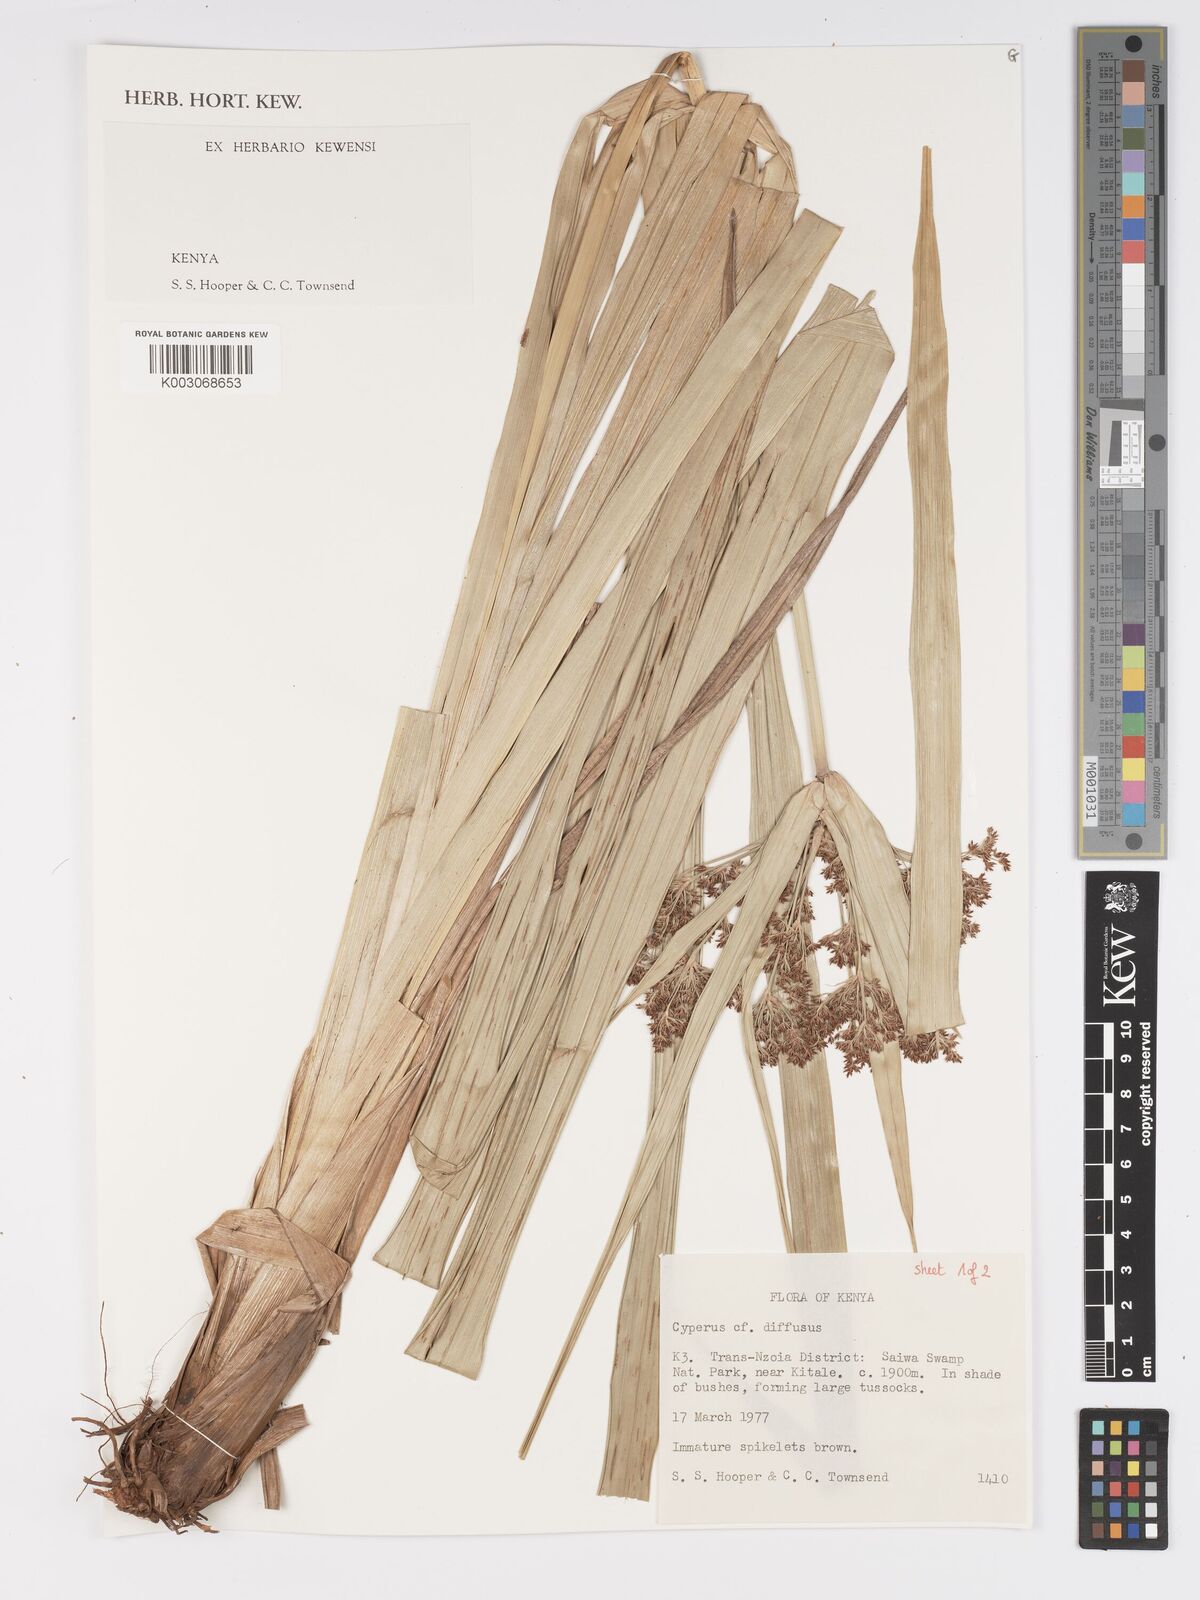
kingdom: Plantae
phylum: Tracheophyta
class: Liliopsida
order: Poales
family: Cyperaceae
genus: Cyperus
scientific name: Cyperus laxus
